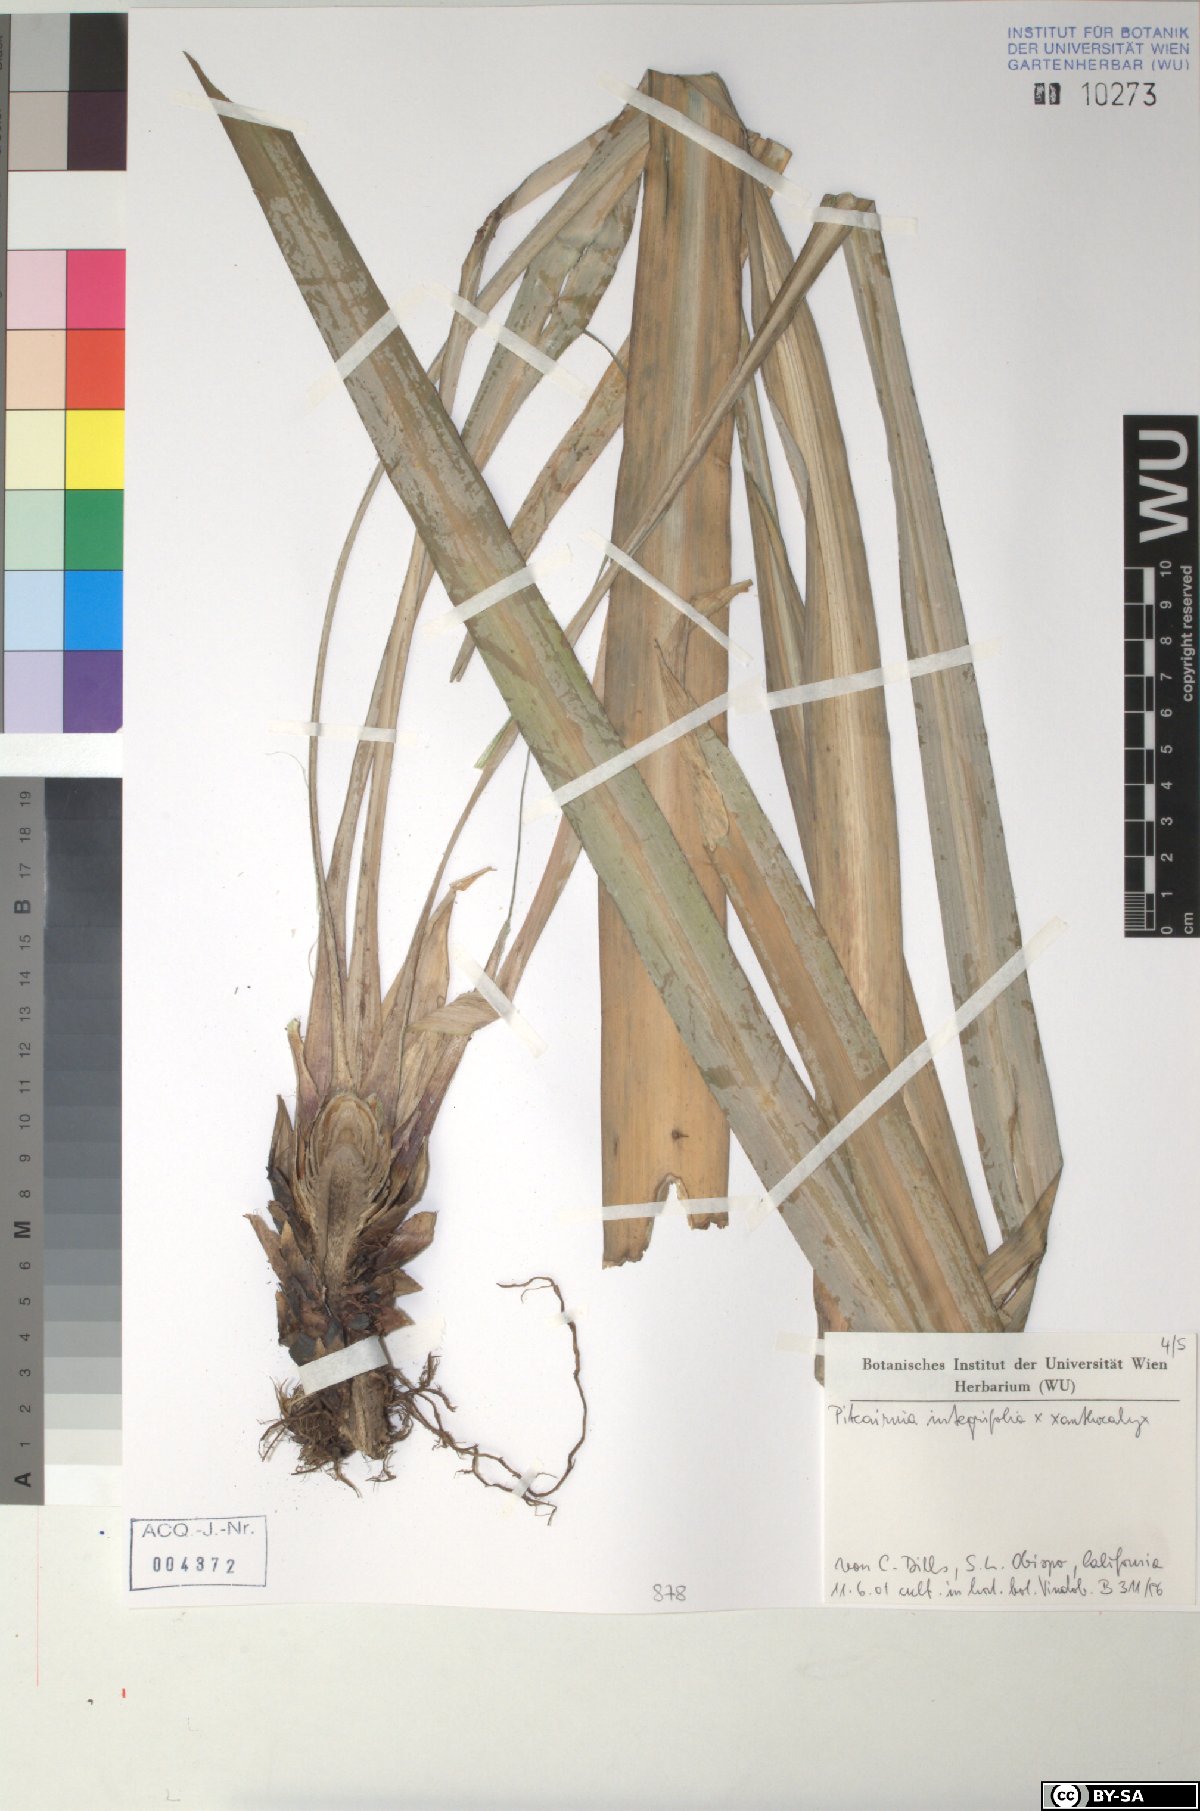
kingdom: Plantae
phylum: Tracheophyta
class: Liliopsida
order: Poales
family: Bromeliaceae
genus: Pitcairnia
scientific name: Pitcairnia integrifolia
